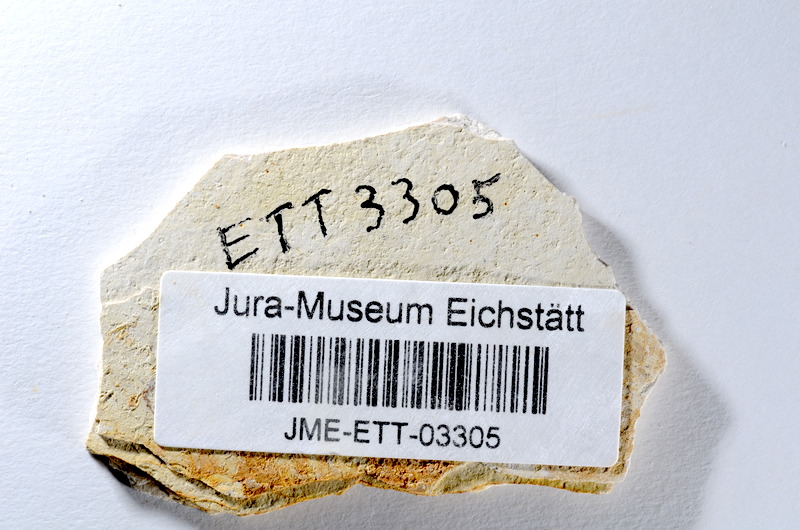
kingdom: Animalia
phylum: Chordata
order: Salmoniformes
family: Orthogonikleithridae
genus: Orthogonikleithrus
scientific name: Orthogonikleithrus hoelli
